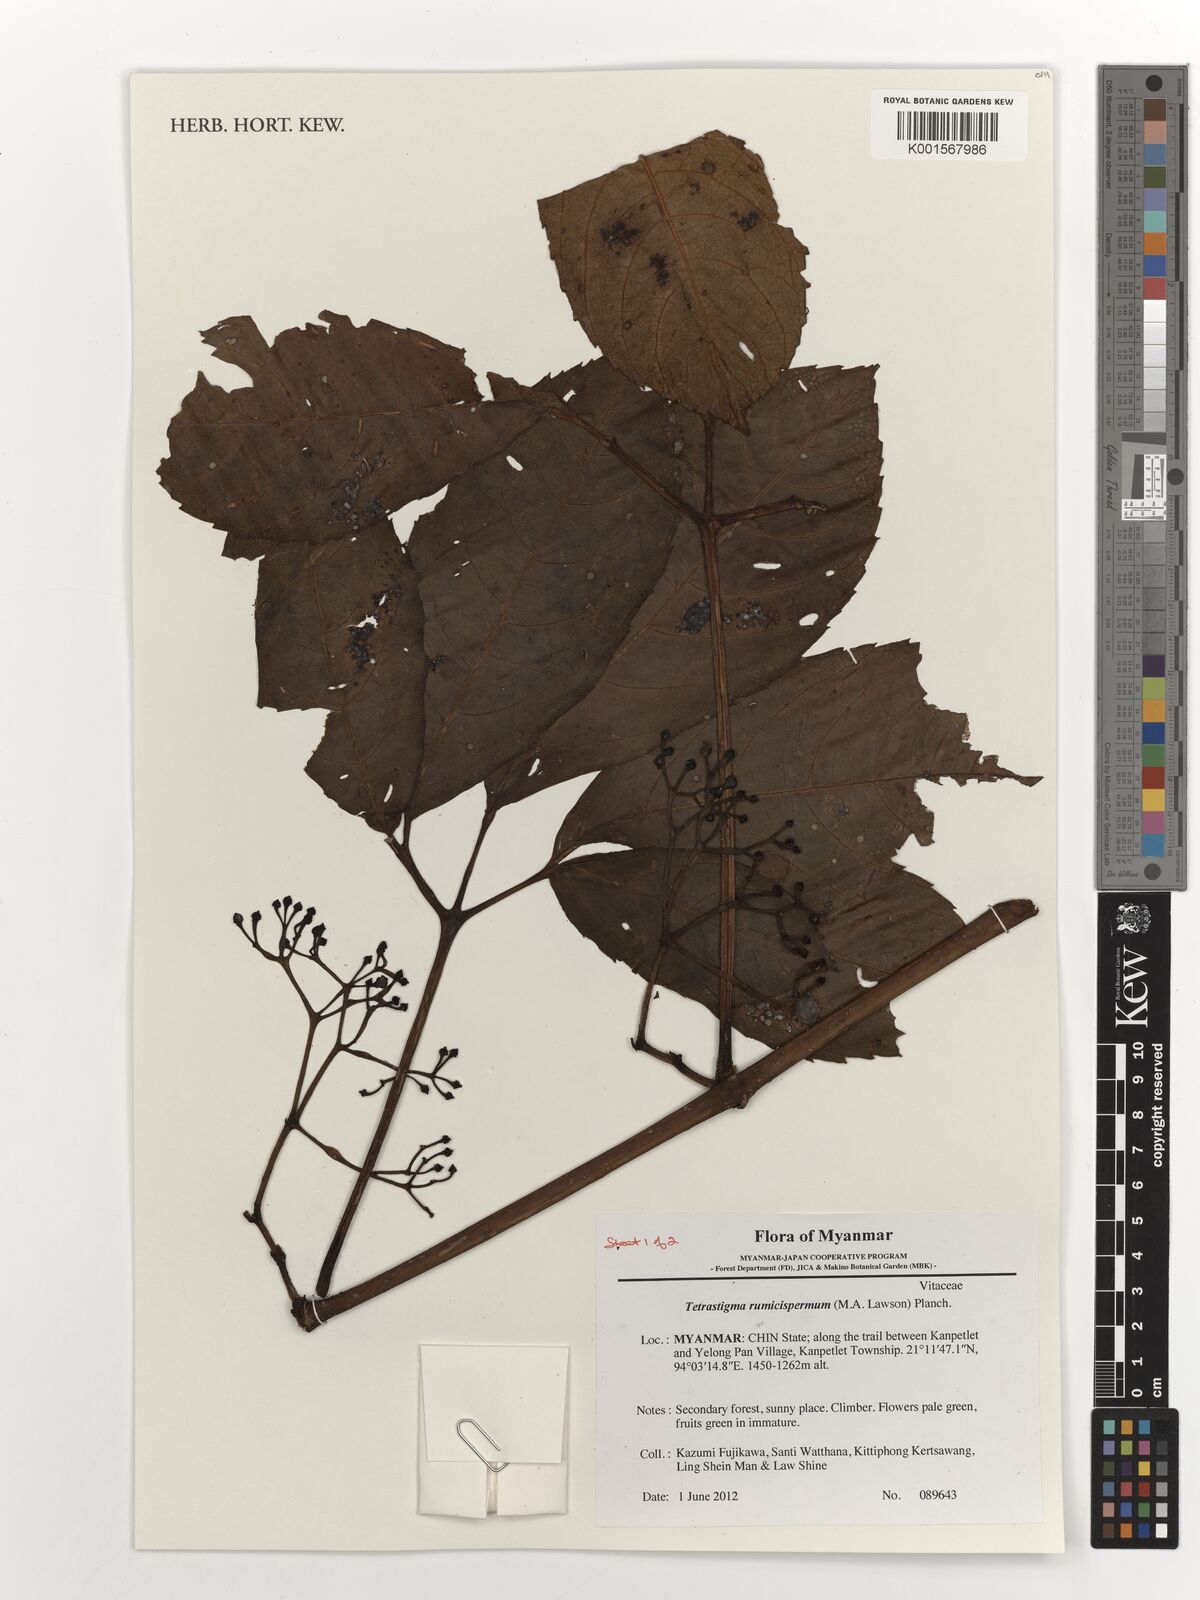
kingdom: Plantae
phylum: Tracheophyta
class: Magnoliopsida
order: Vitales
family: Vitaceae
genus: Tetrastigma
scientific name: Tetrastigma rumicispermum
